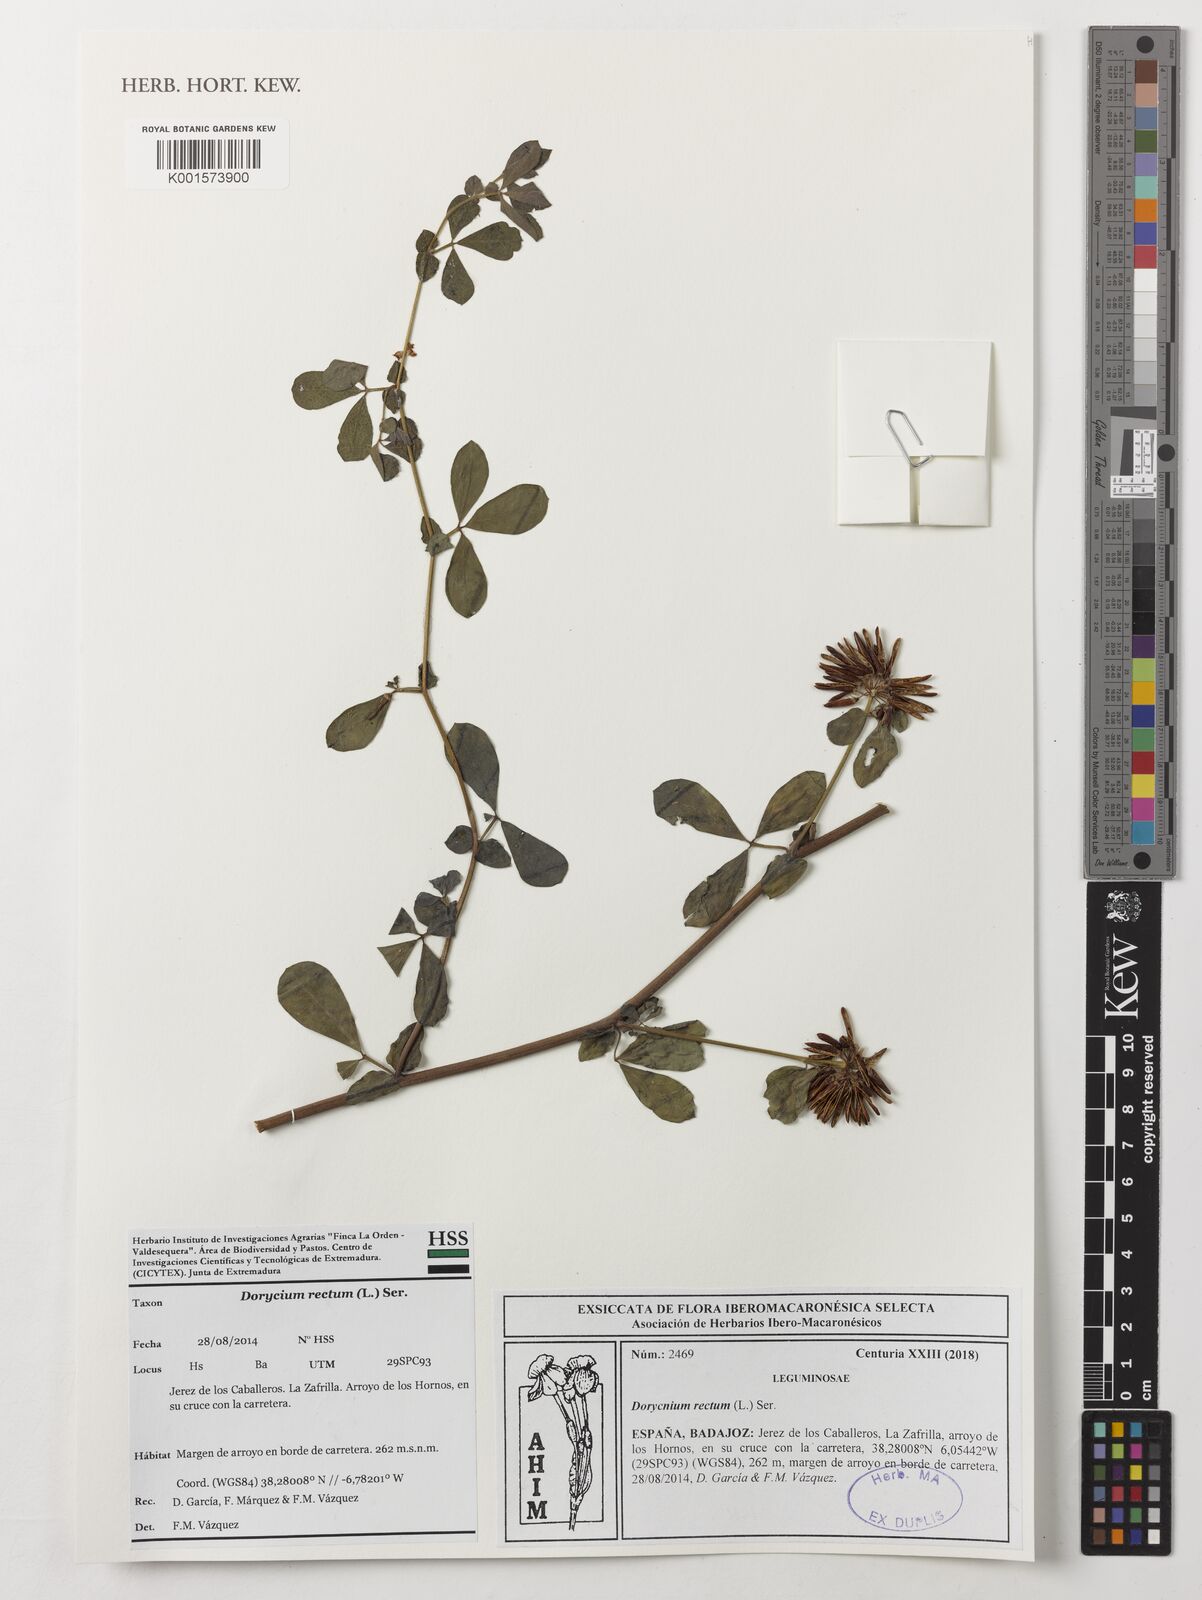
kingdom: Plantae
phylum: Tracheophyta
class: Magnoliopsida
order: Fabales
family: Fabaceae
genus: Lotus
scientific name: Lotus rectus
